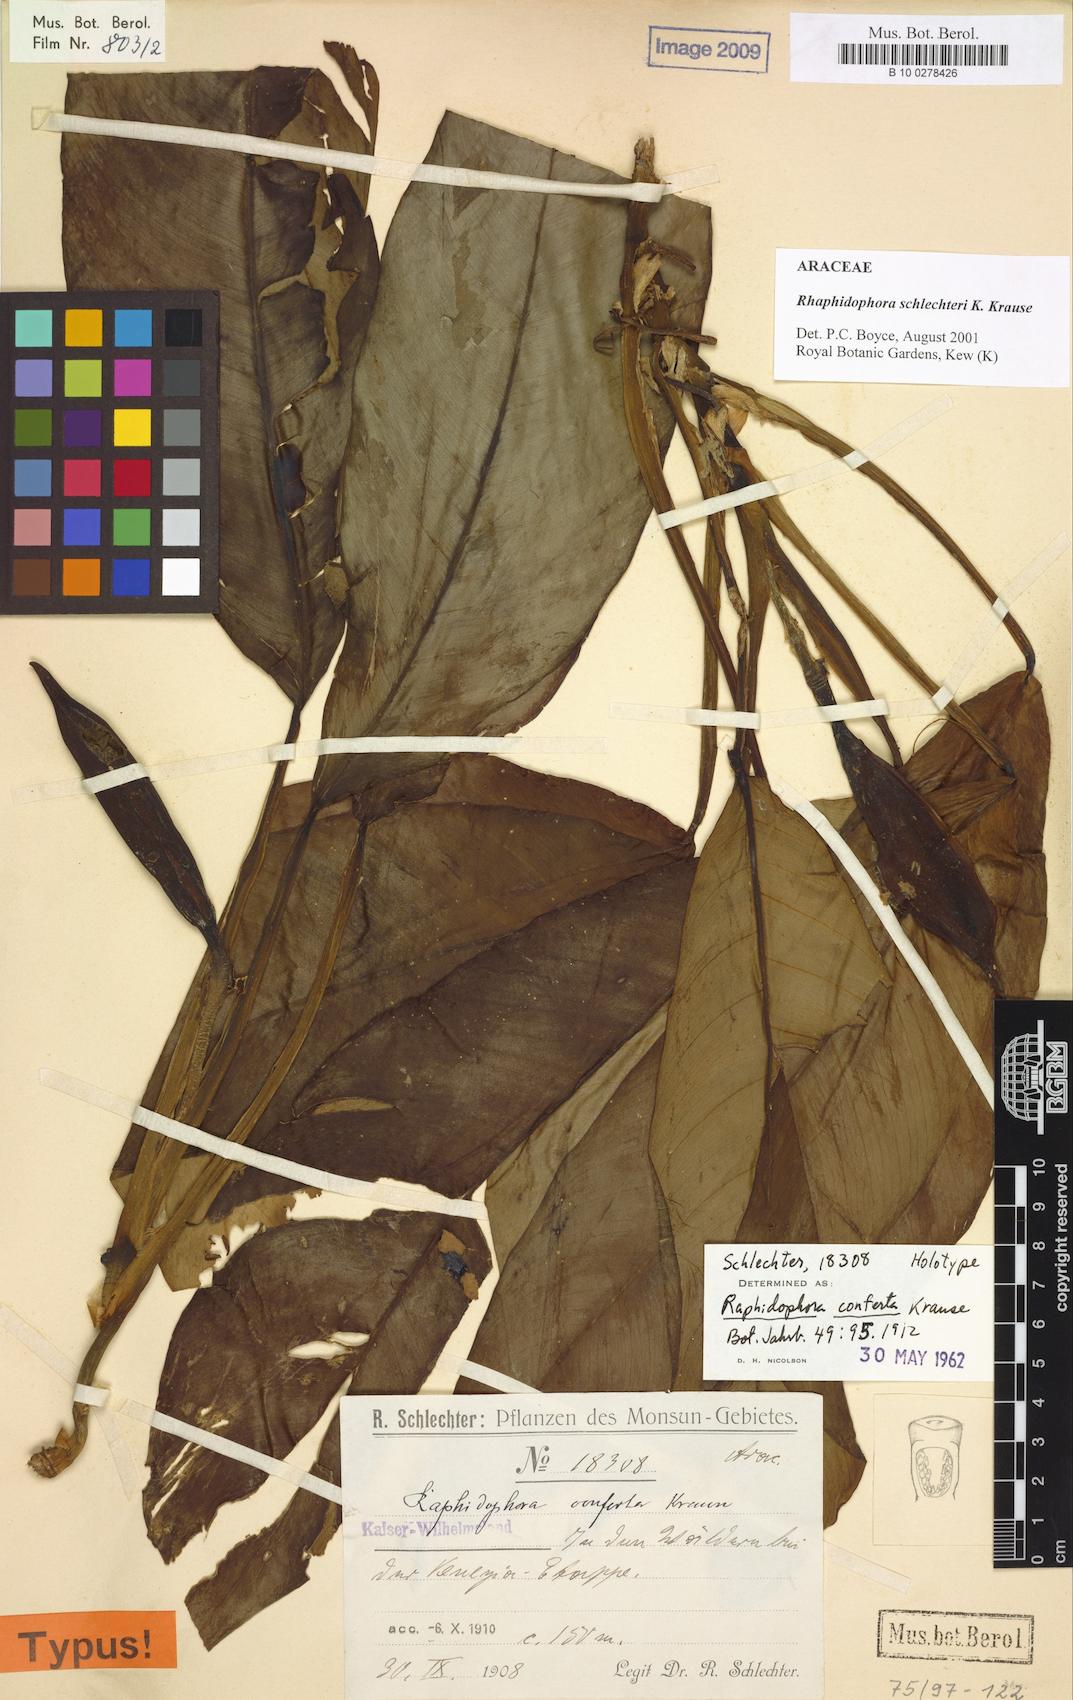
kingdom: Plantae
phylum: Tracheophyta
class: Liliopsida
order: Alismatales
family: Araceae
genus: Rhaphidophora
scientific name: Rhaphidophora schlechteri
